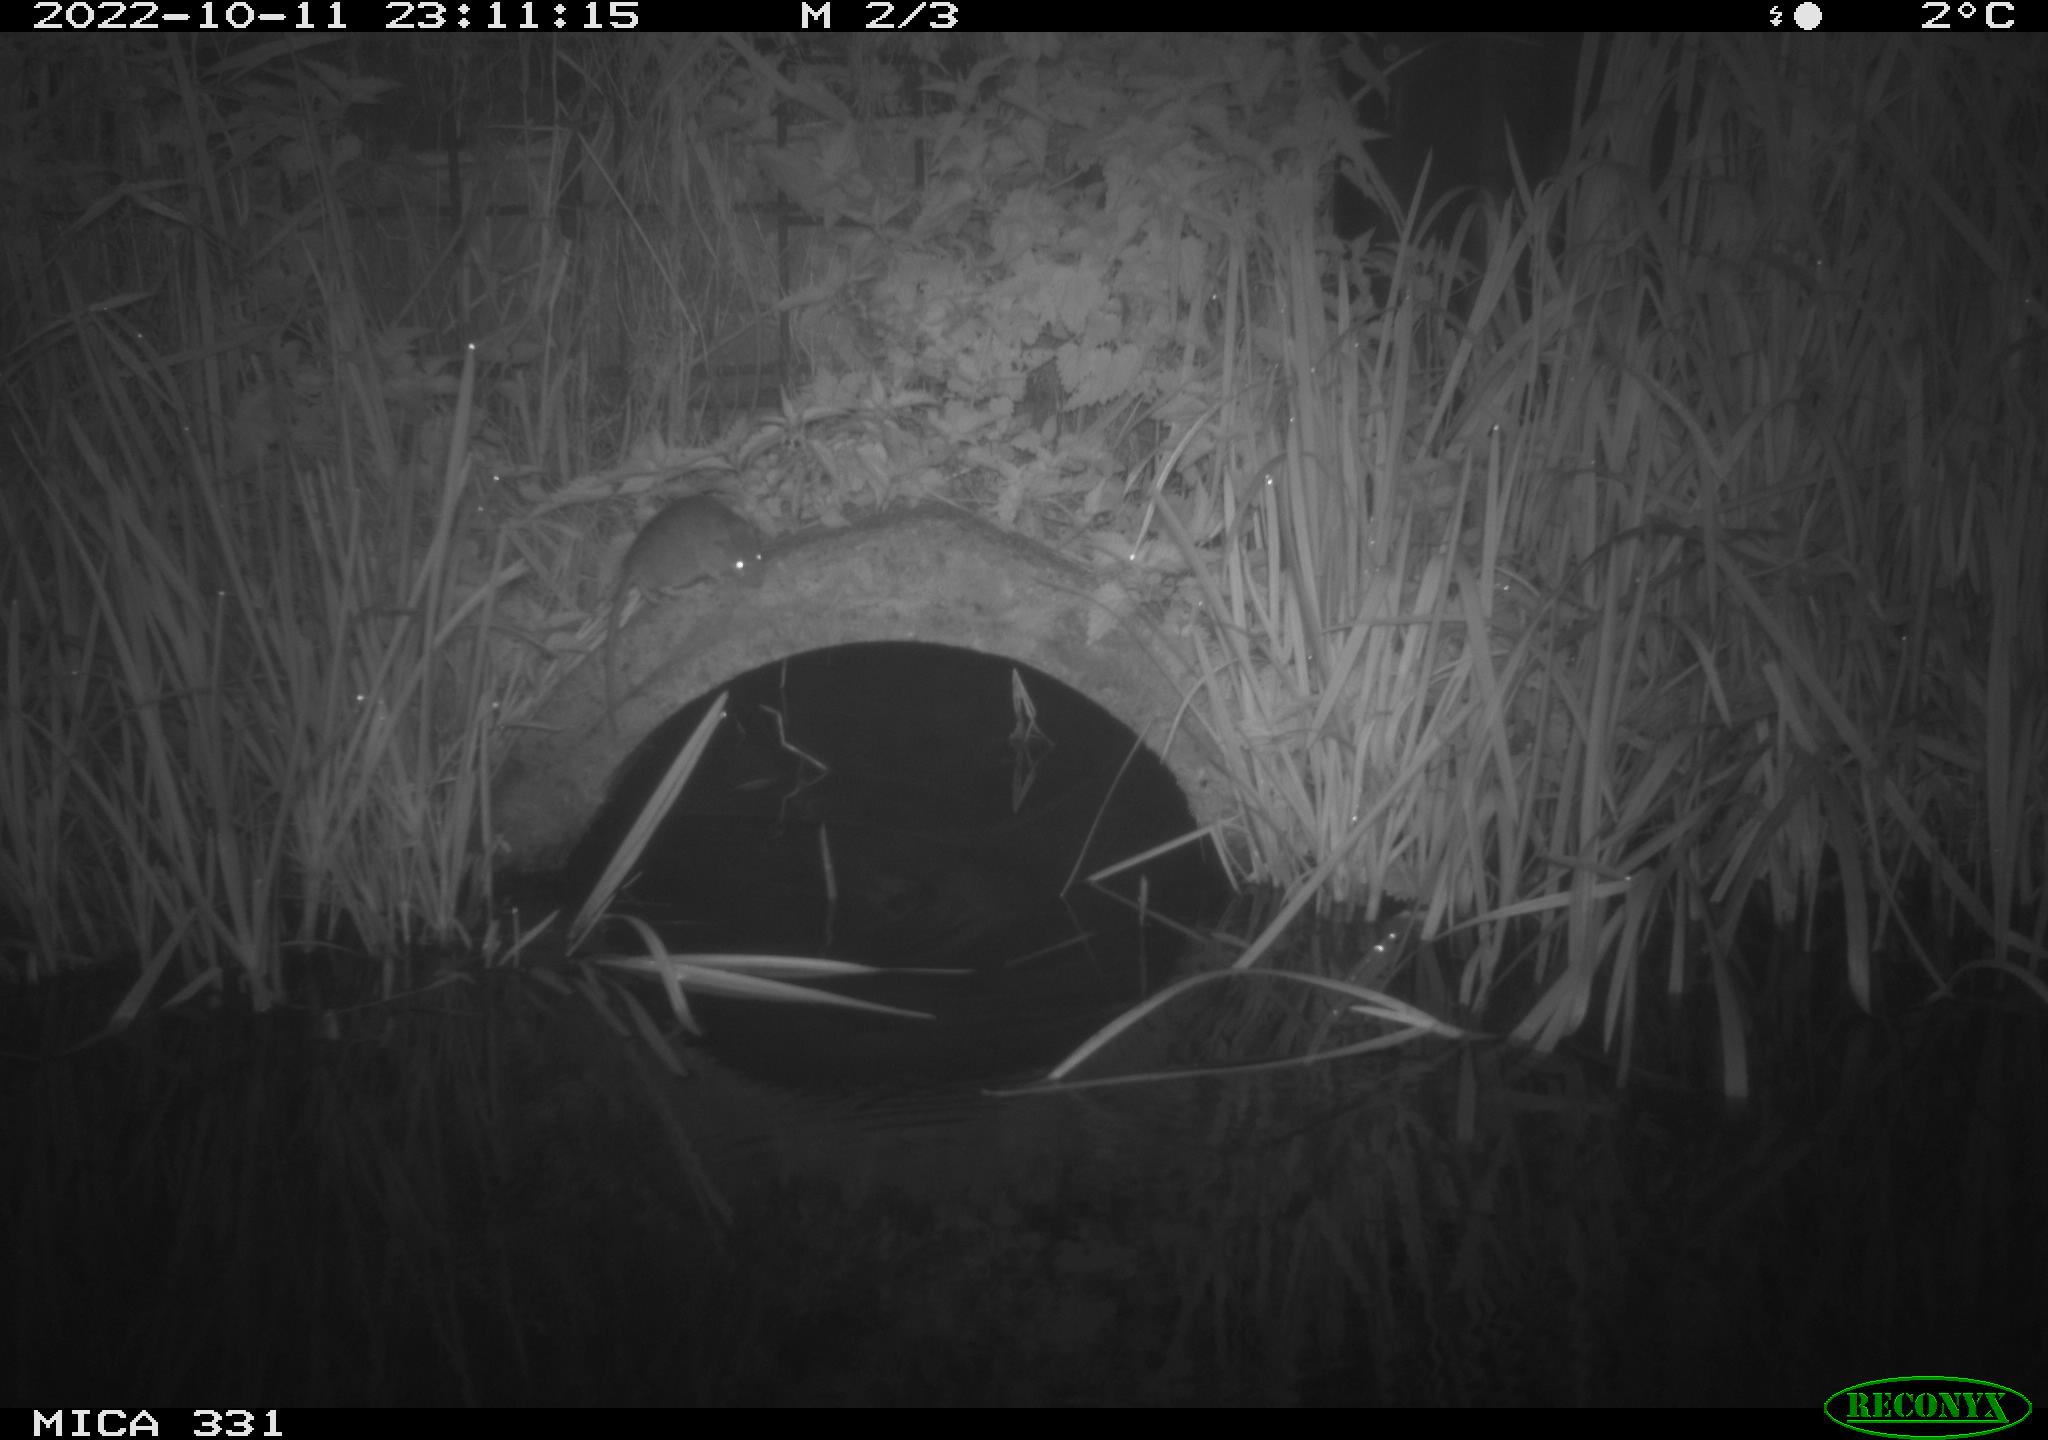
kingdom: Animalia
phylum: Chordata
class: Mammalia
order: Rodentia
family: Muridae
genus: Rattus
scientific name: Rattus norvegicus
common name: Brown rat
